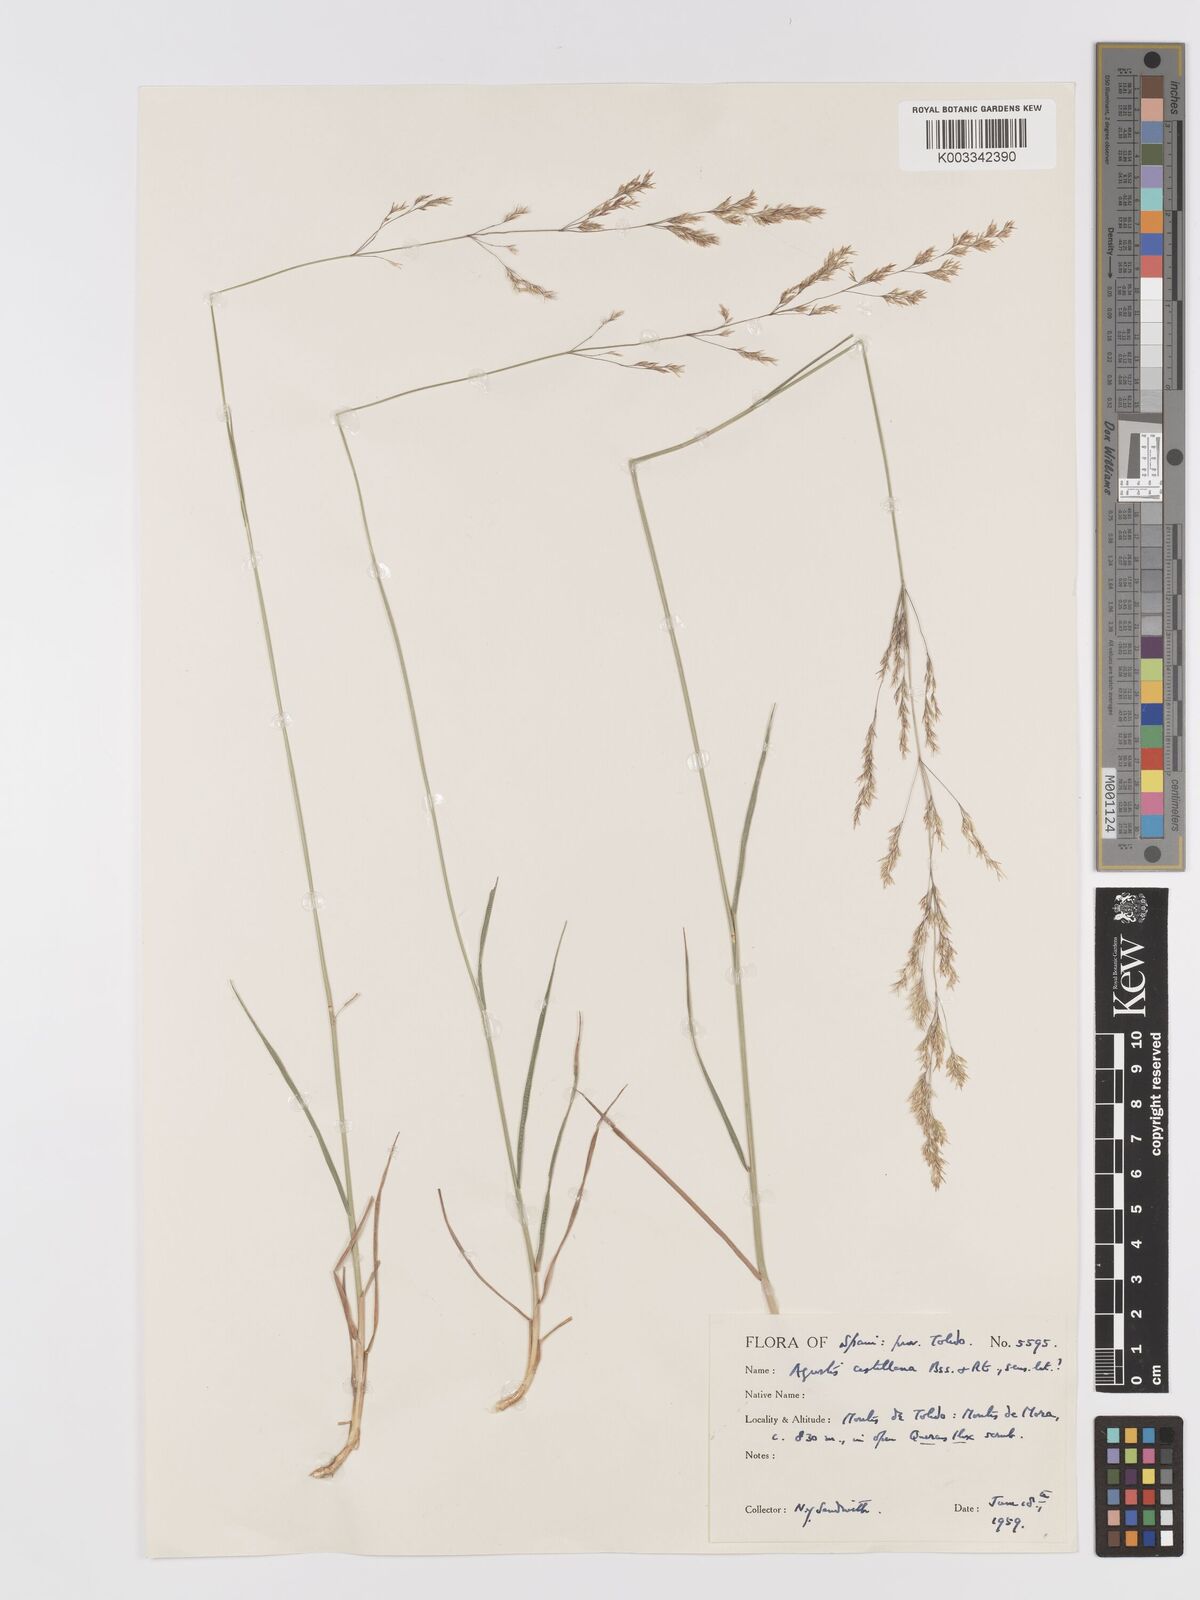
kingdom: Plantae
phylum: Tracheophyta
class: Liliopsida
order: Poales
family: Poaceae
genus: Agrostis
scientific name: Agrostis castellana
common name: Highland bent
